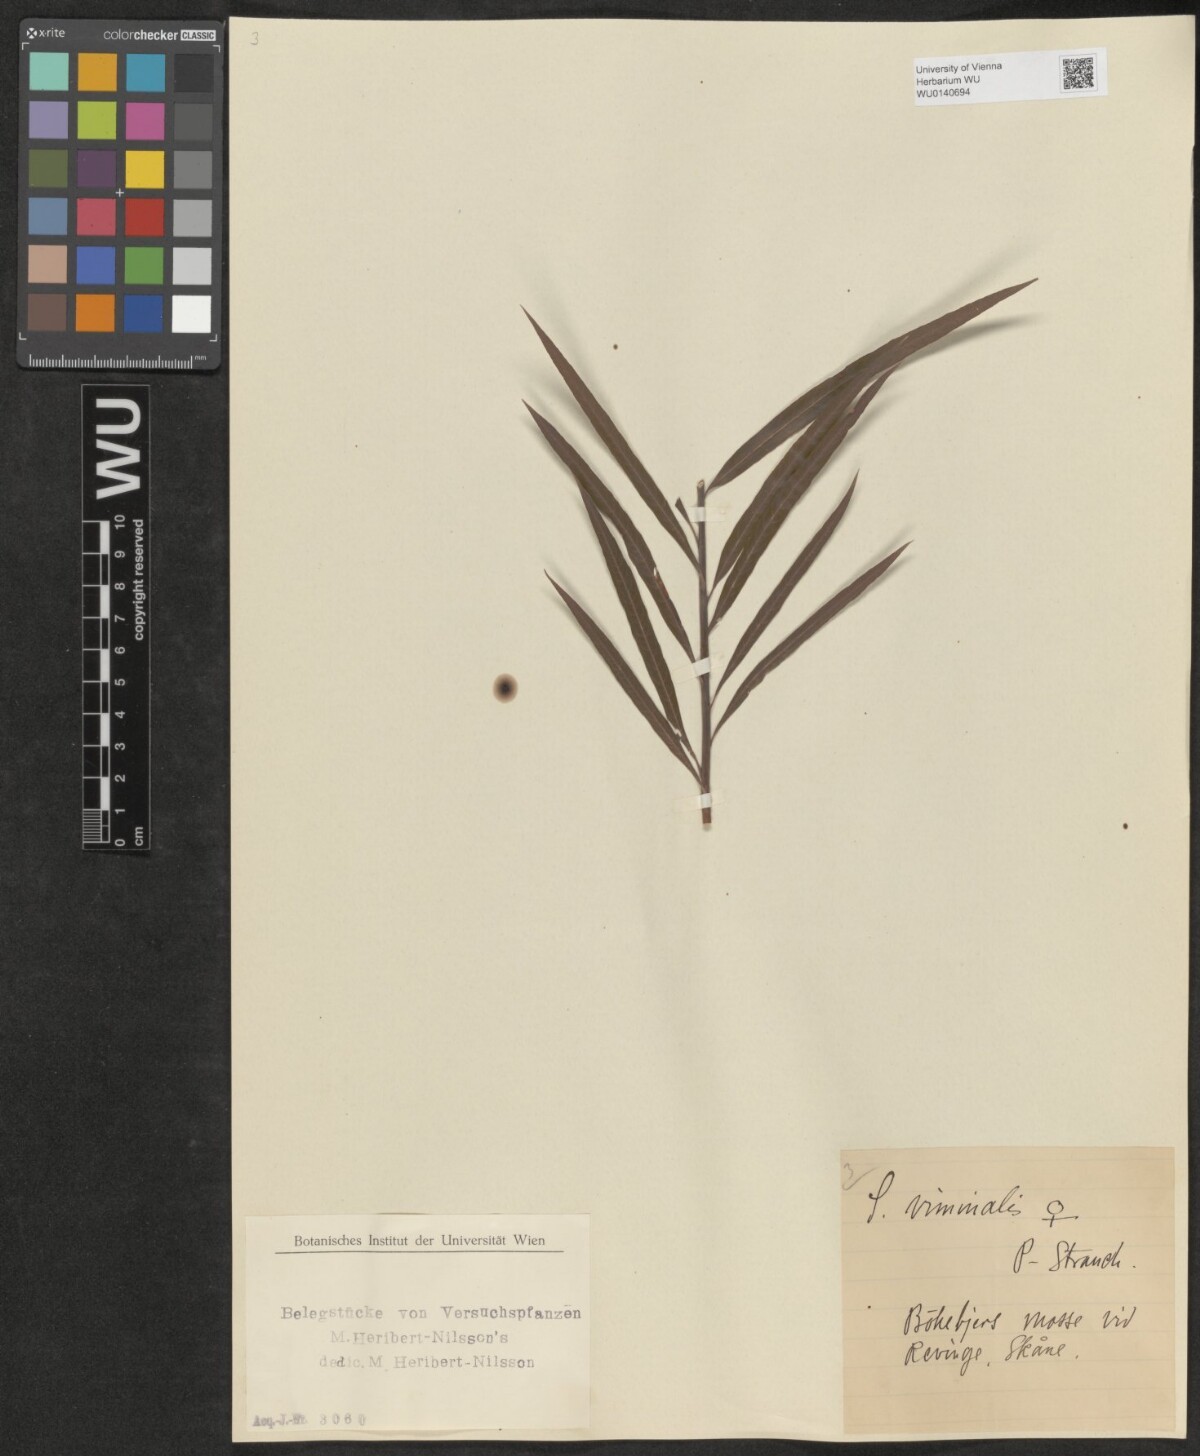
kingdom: Plantae
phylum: Tracheophyta
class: Magnoliopsida
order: Malpighiales
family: Salicaceae
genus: Salix
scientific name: Salix
